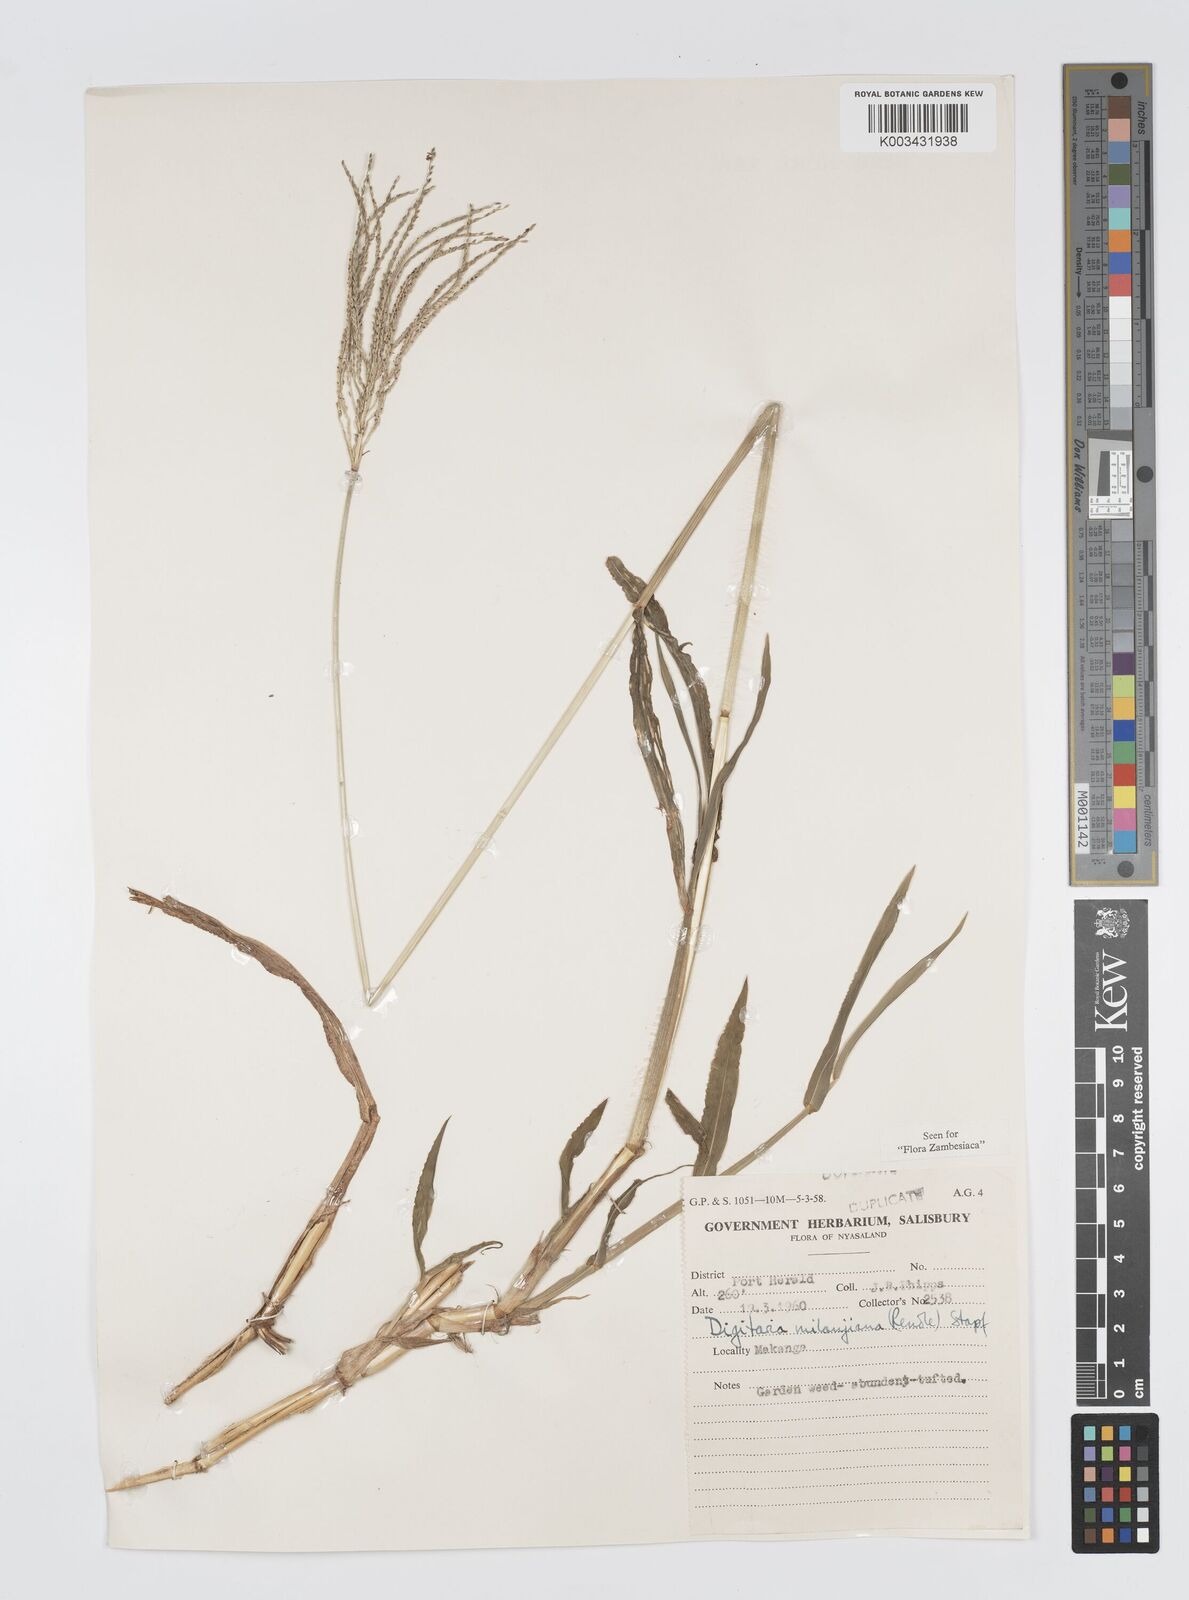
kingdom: Plantae
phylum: Tracheophyta
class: Liliopsida
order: Poales
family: Poaceae
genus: Digitaria
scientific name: Digitaria milanjiana
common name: Madagascar crabgrass
